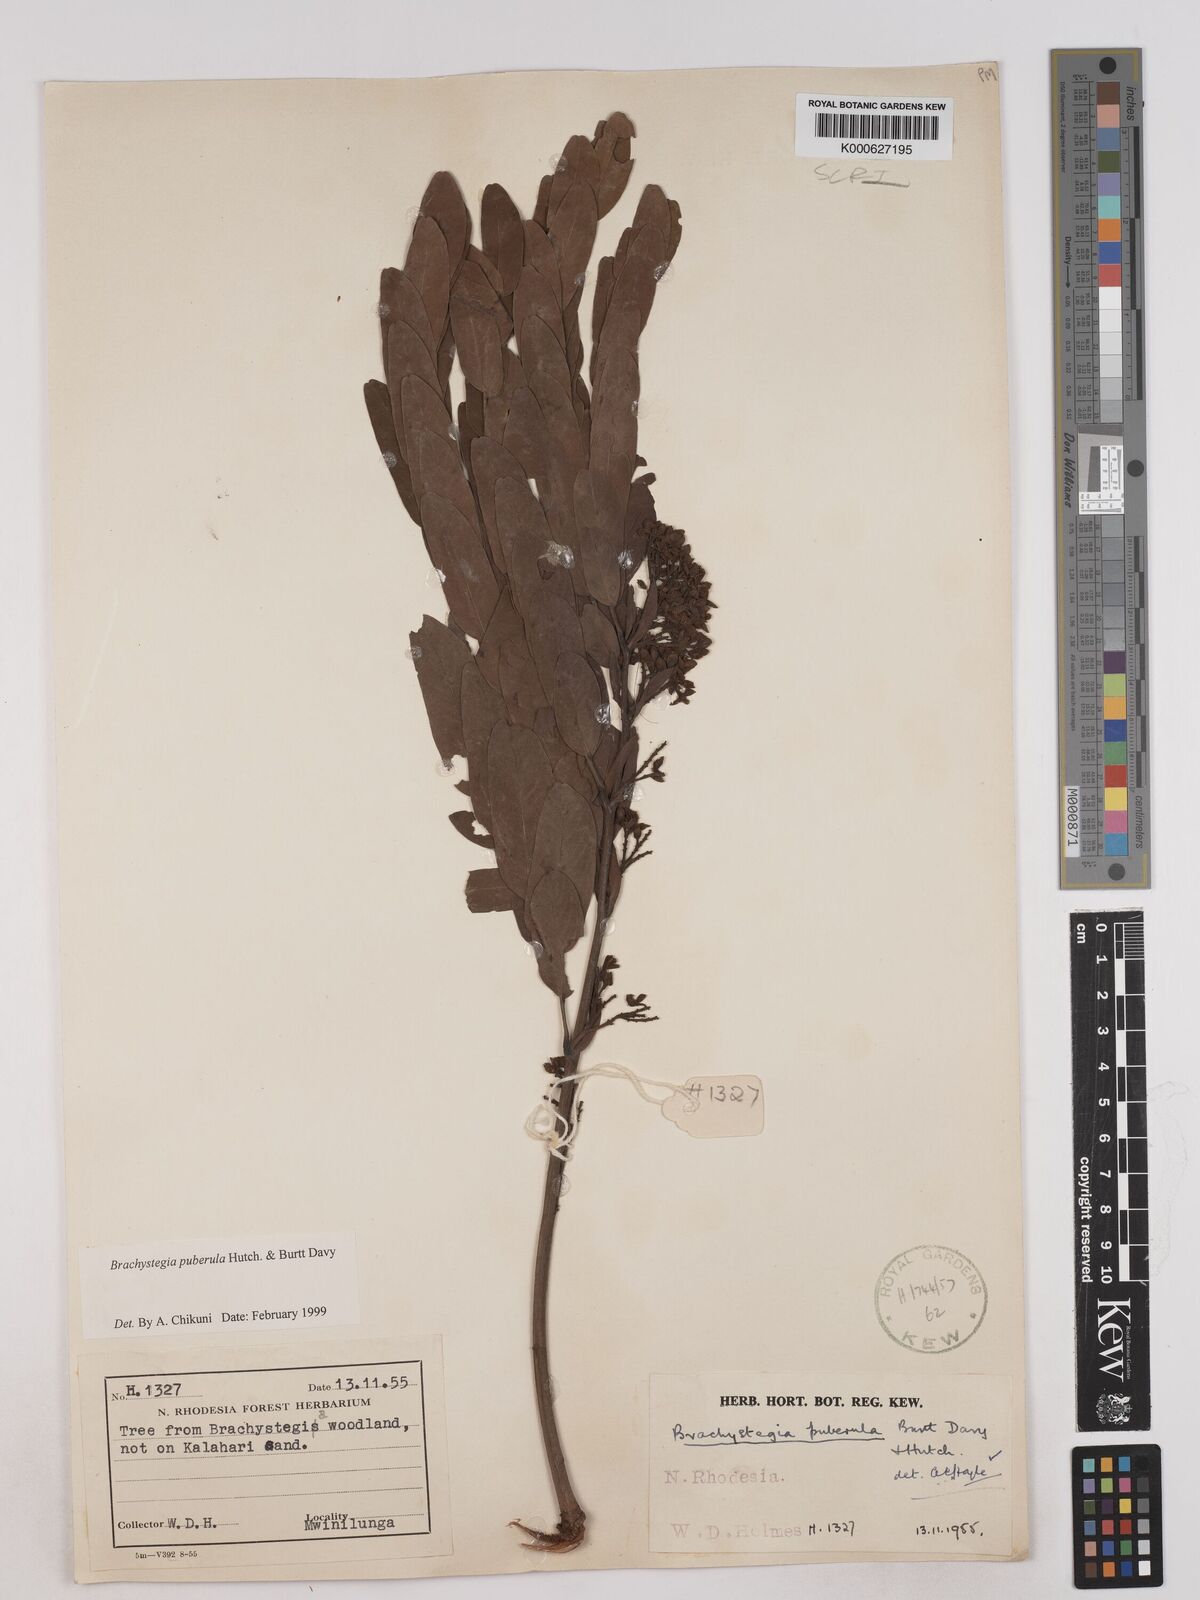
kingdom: Plantae
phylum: Tracheophyta
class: Magnoliopsida
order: Fabales
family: Fabaceae
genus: Brachystegia
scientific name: Brachystegia puberula
